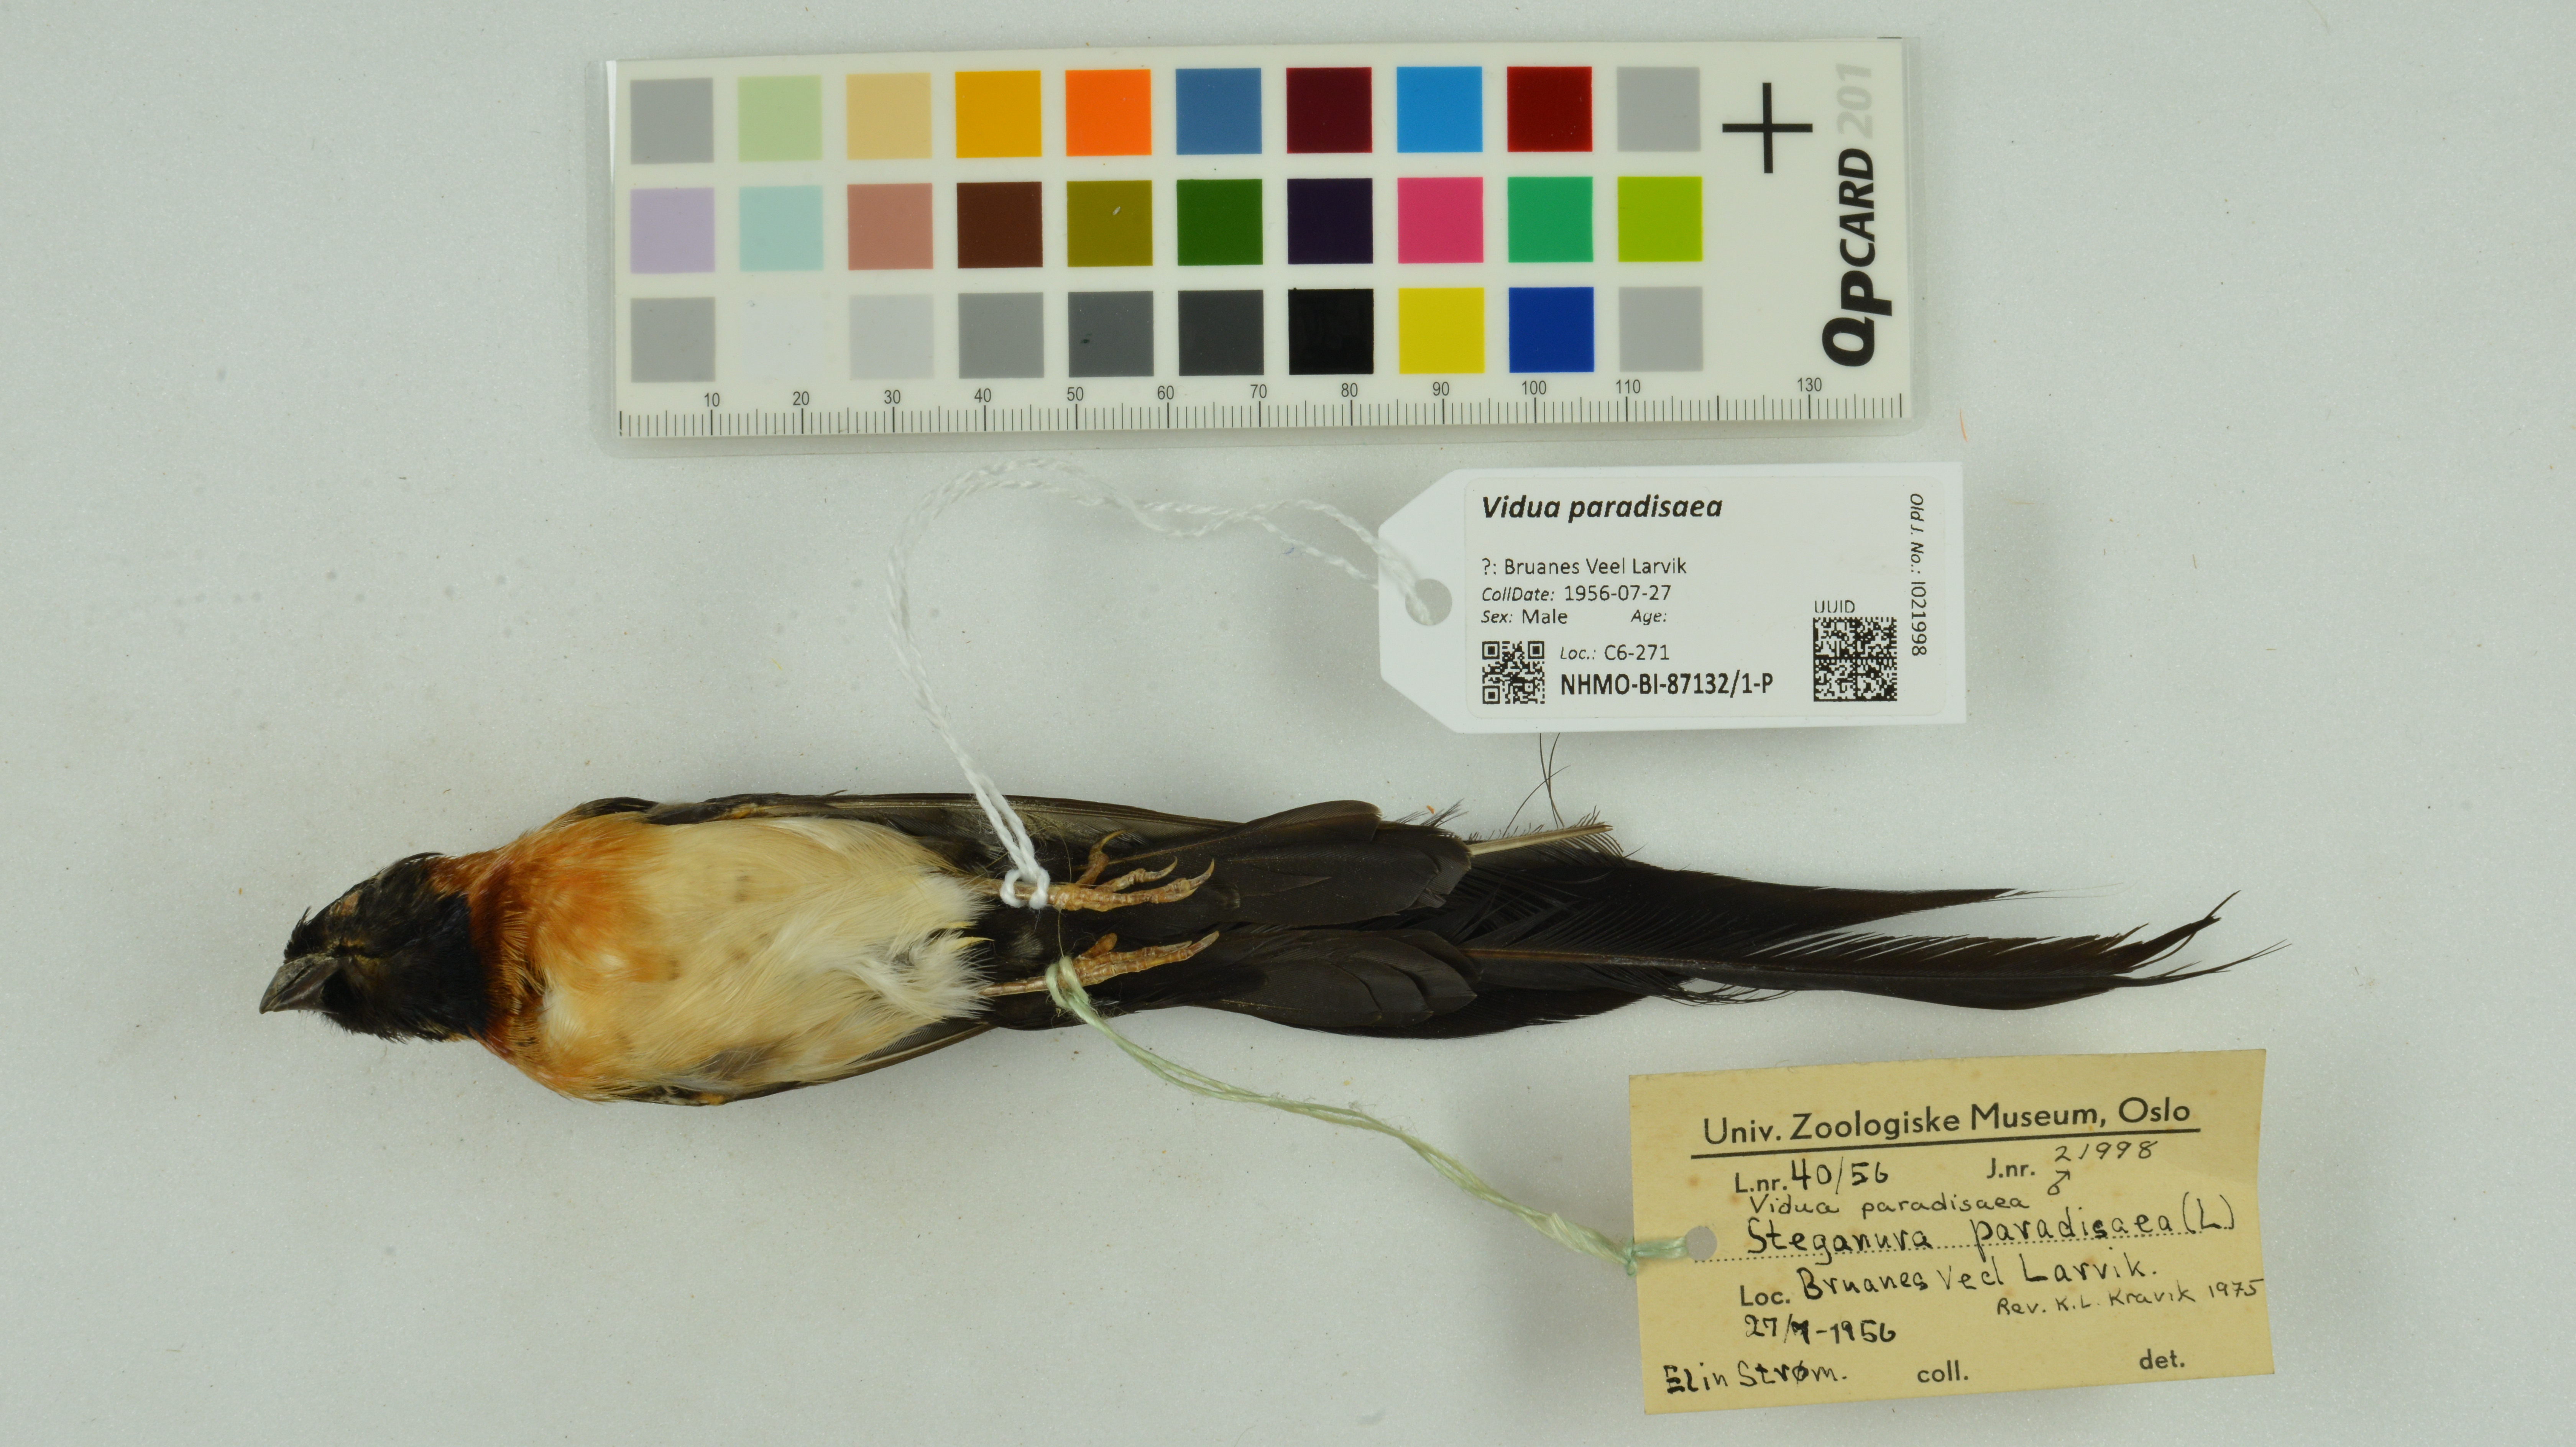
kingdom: Animalia
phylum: Chordata
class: Aves
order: Passeriformes
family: Viduidae
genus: Vidua
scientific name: Vidua paradisaea
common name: Long-tailed paradise whydah
